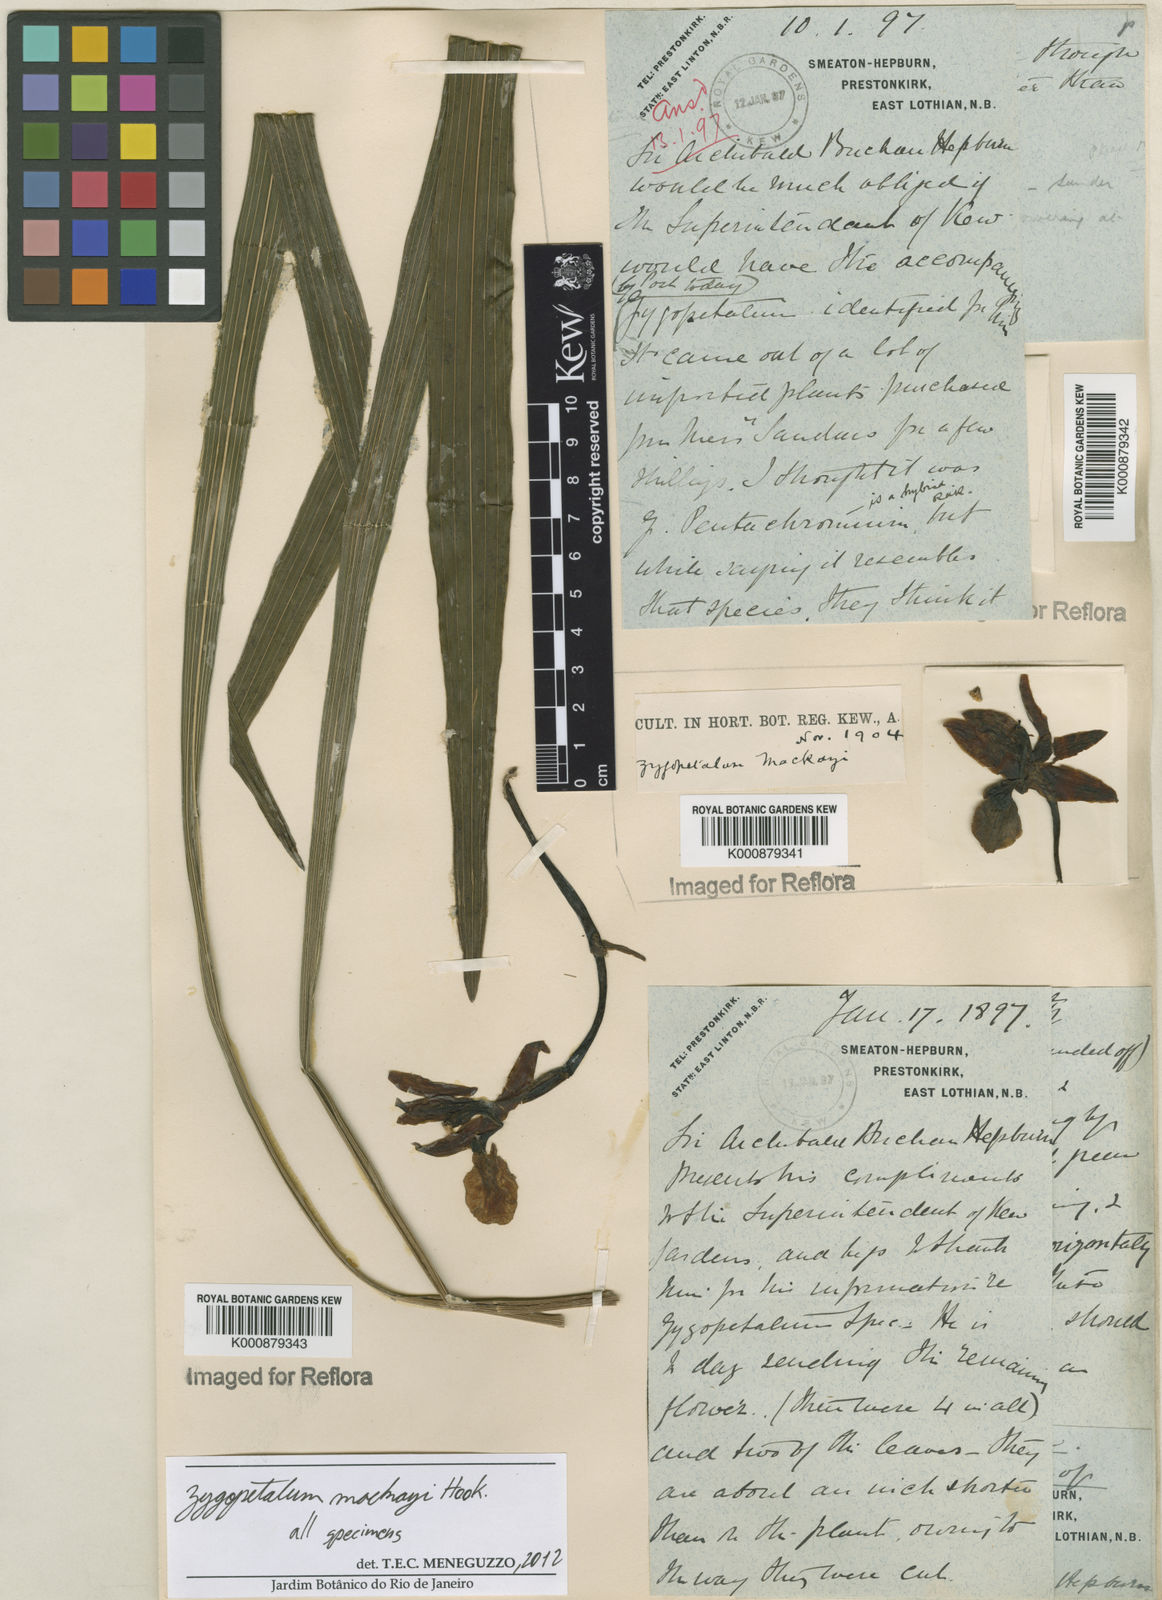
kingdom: Plantae
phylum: Tracheophyta
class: Liliopsida
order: Asparagales
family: Orchidaceae
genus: Zygopetalum
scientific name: Zygopetalum maculatum
